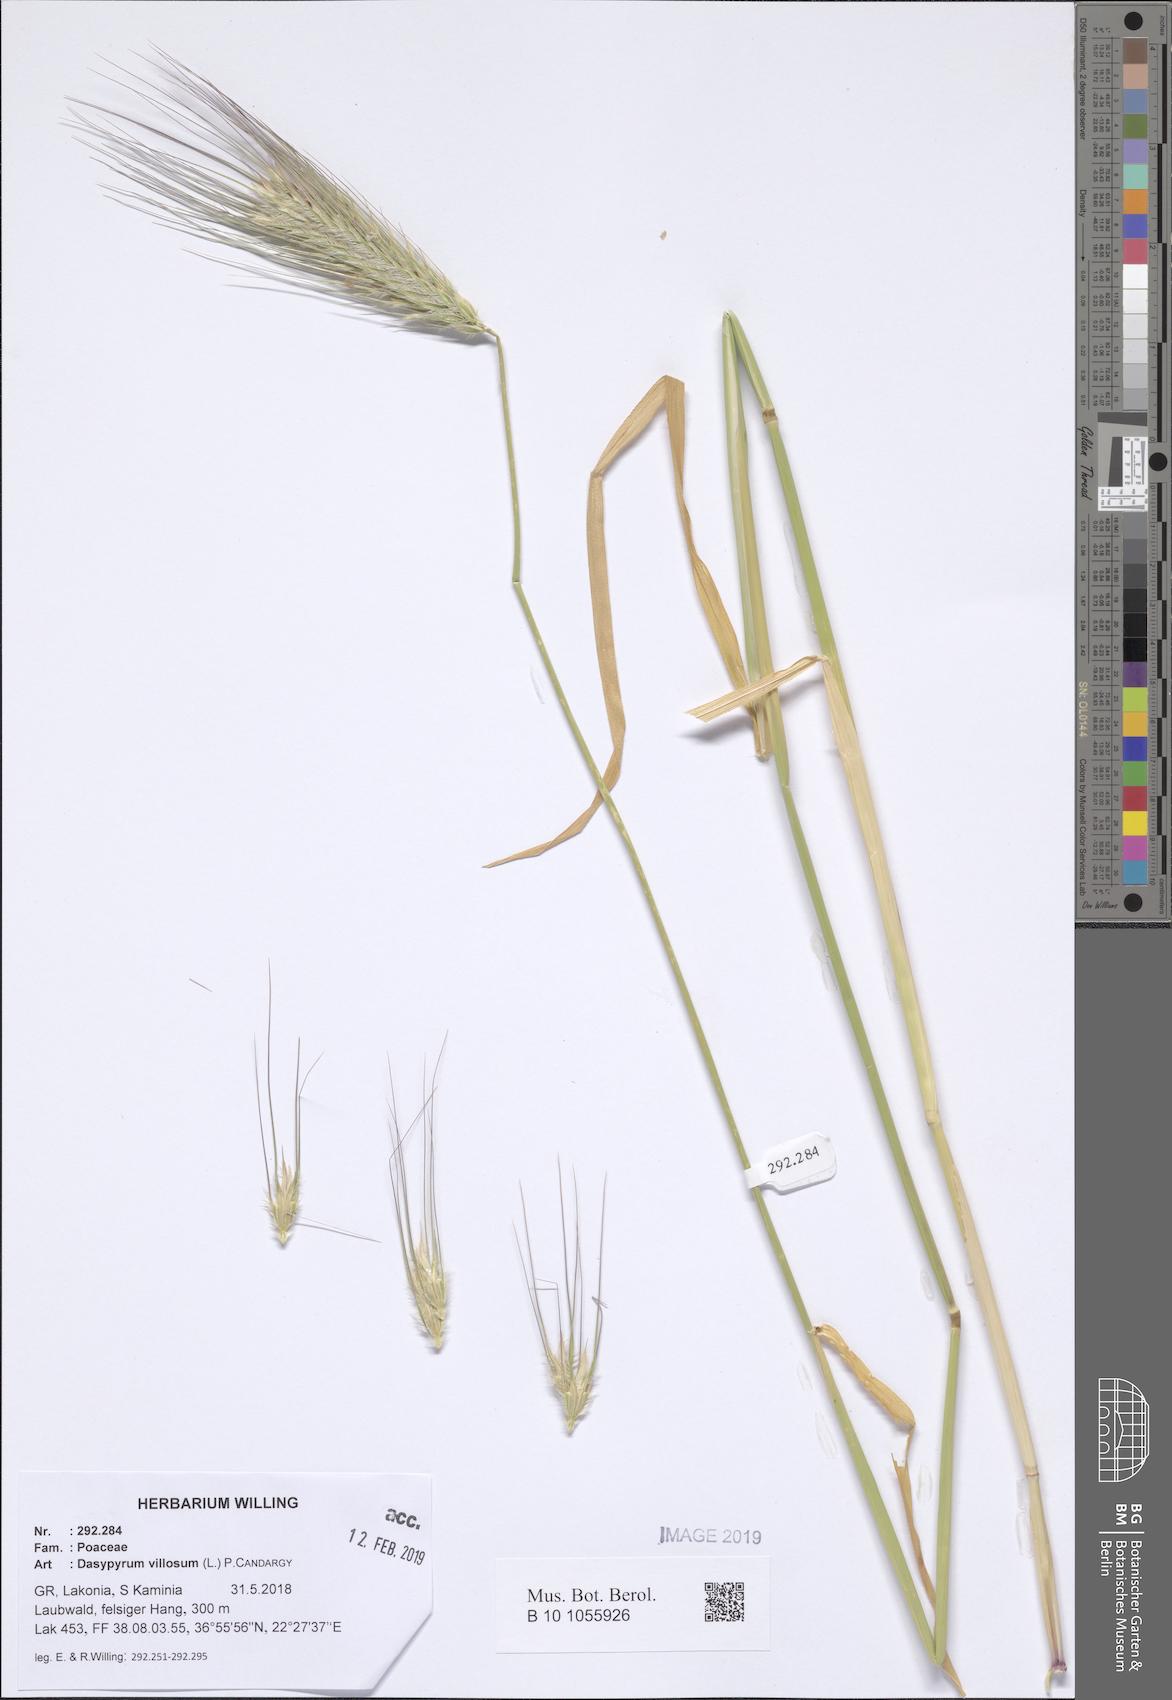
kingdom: Plantae
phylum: Tracheophyta
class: Liliopsida
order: Poales
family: Poaceae
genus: Dasypyrum
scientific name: Dasypyrum villosum
